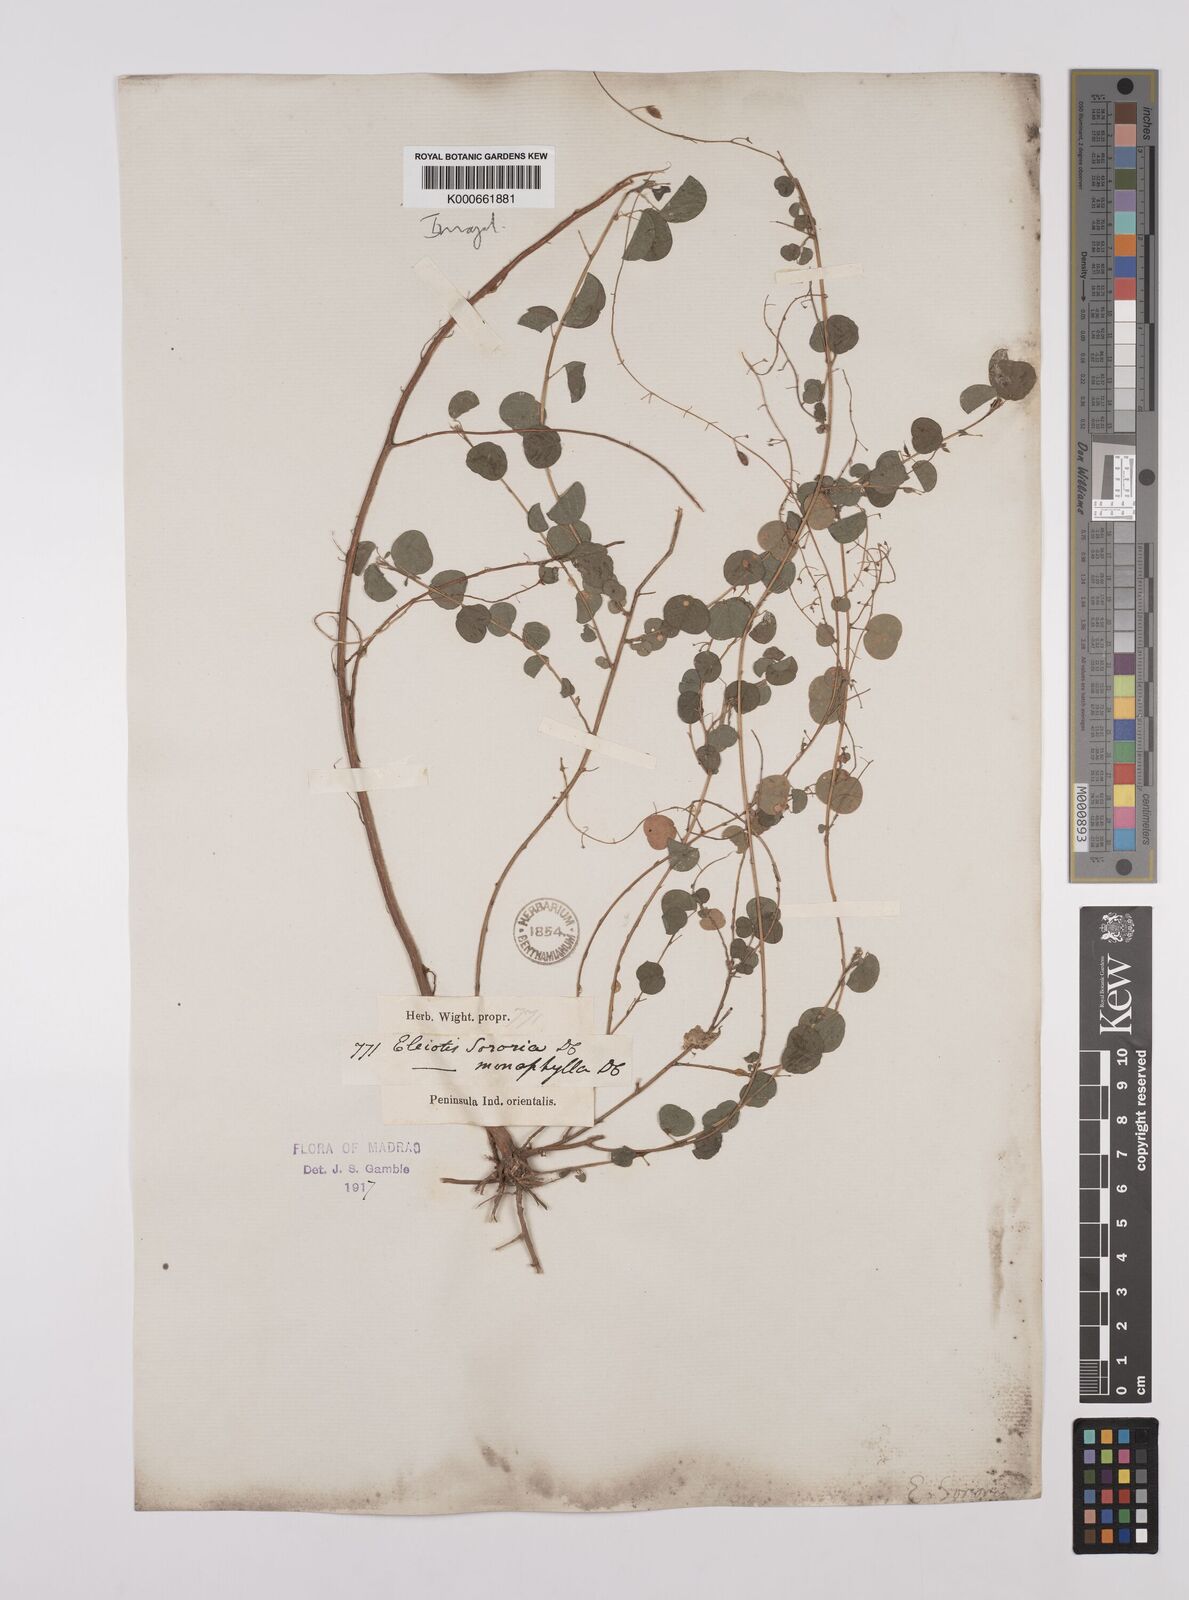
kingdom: Plantae
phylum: Tracheophyta
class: Magnoliopsida
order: Fabales
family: Fabaceae
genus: Eleiotis
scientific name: Eleiotis sororia
